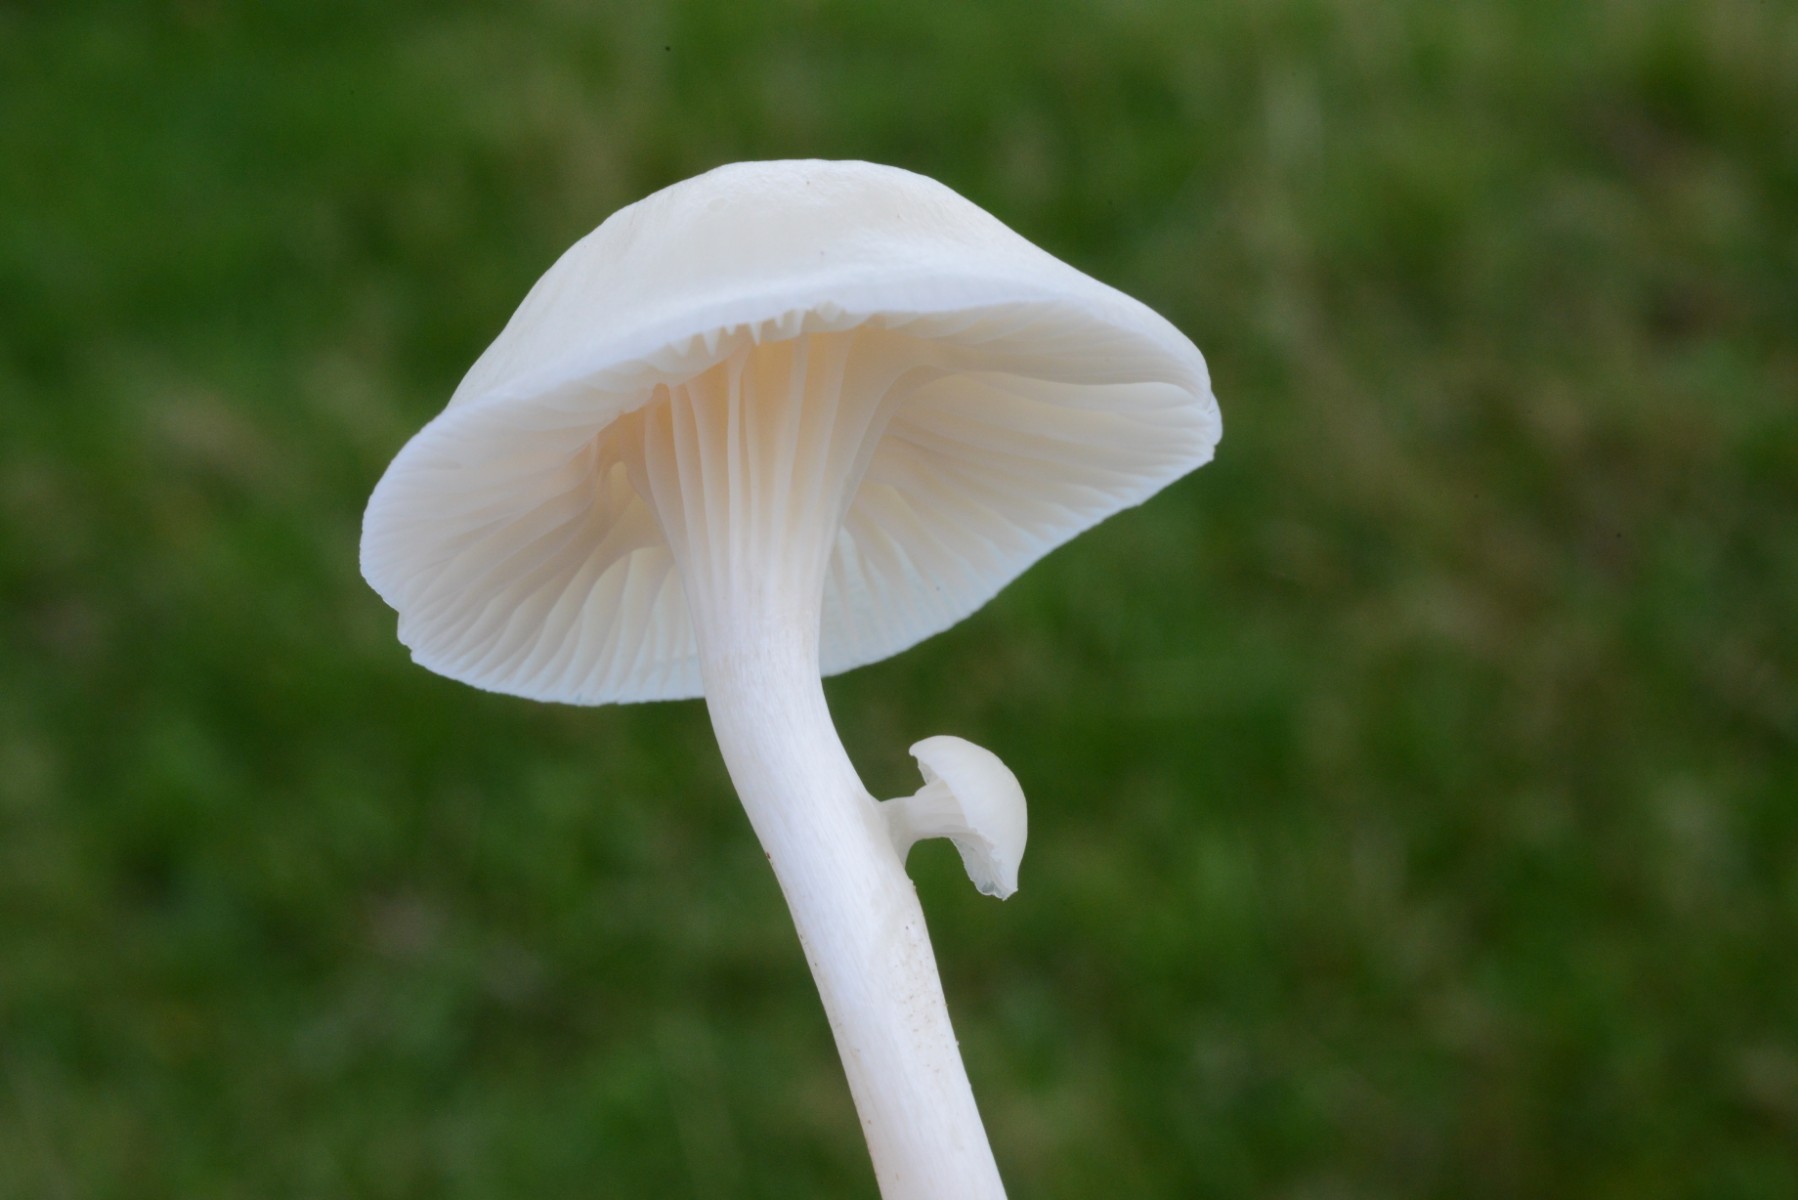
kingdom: Fungi
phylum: Basidiomycota
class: Agaricomycetes
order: Agaricales
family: Hygrophoraceae
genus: Cuphophyllus
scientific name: Cuphophyllus virgineus
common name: snehvid vokshat
